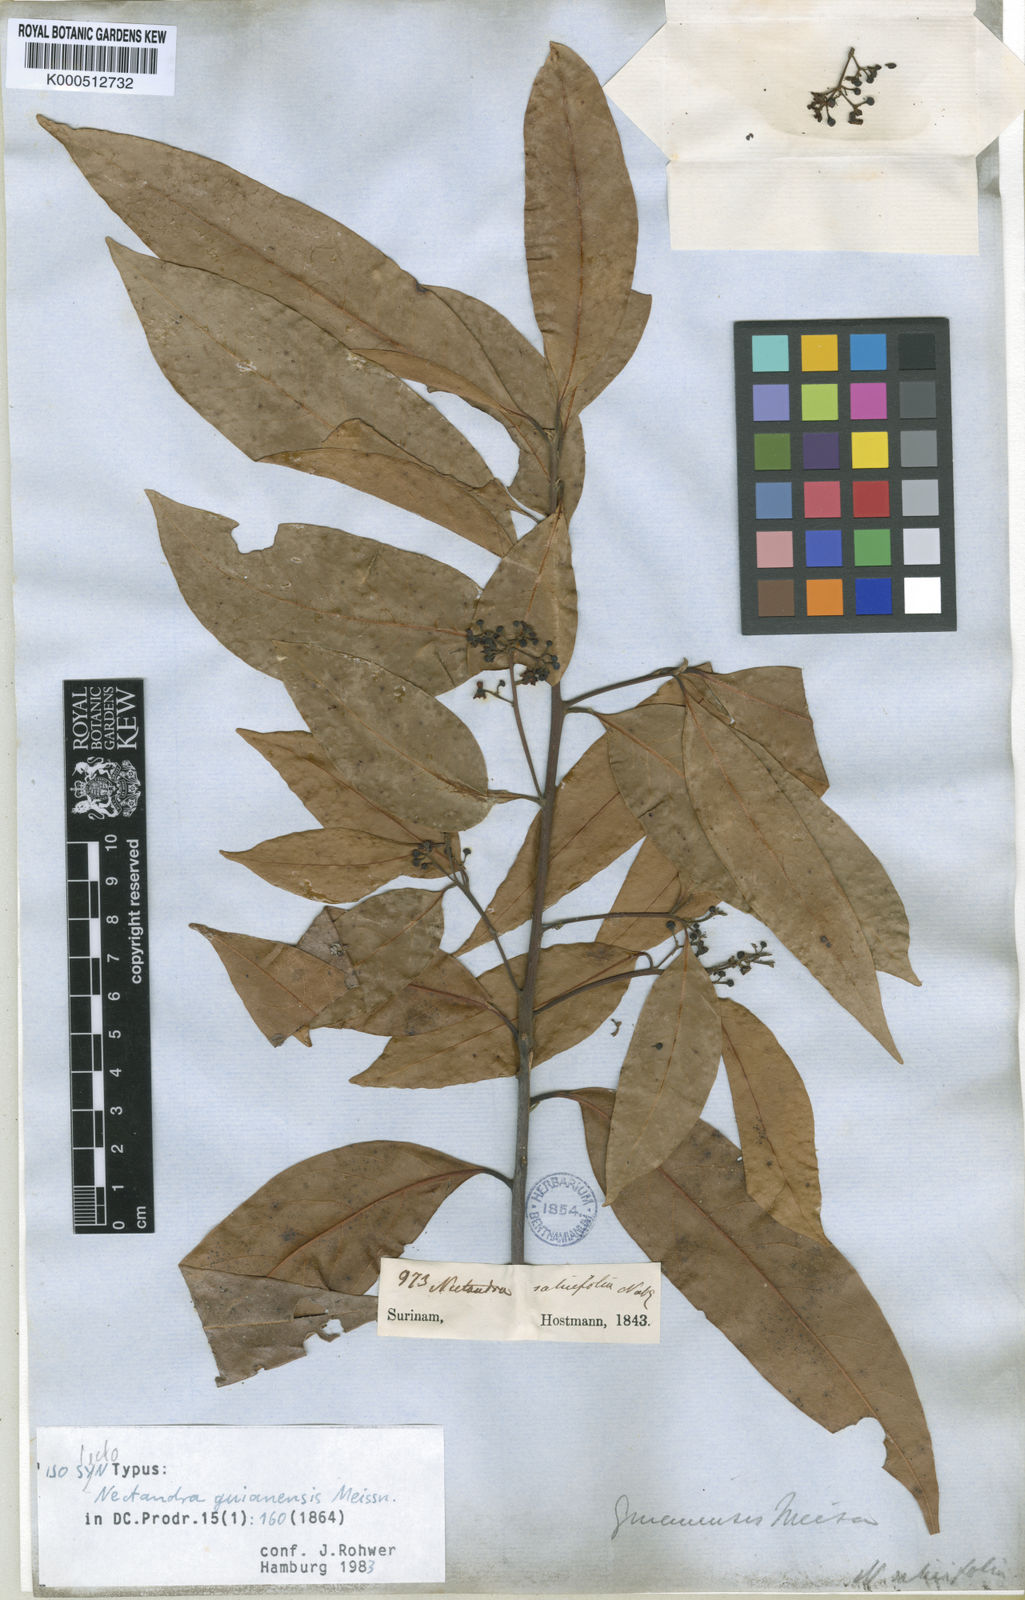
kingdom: Plantae
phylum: Tracheophyta
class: Magnoliopsida
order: Laurales
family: Lauraceae
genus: Nectandra
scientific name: Nectandra sanguinea
